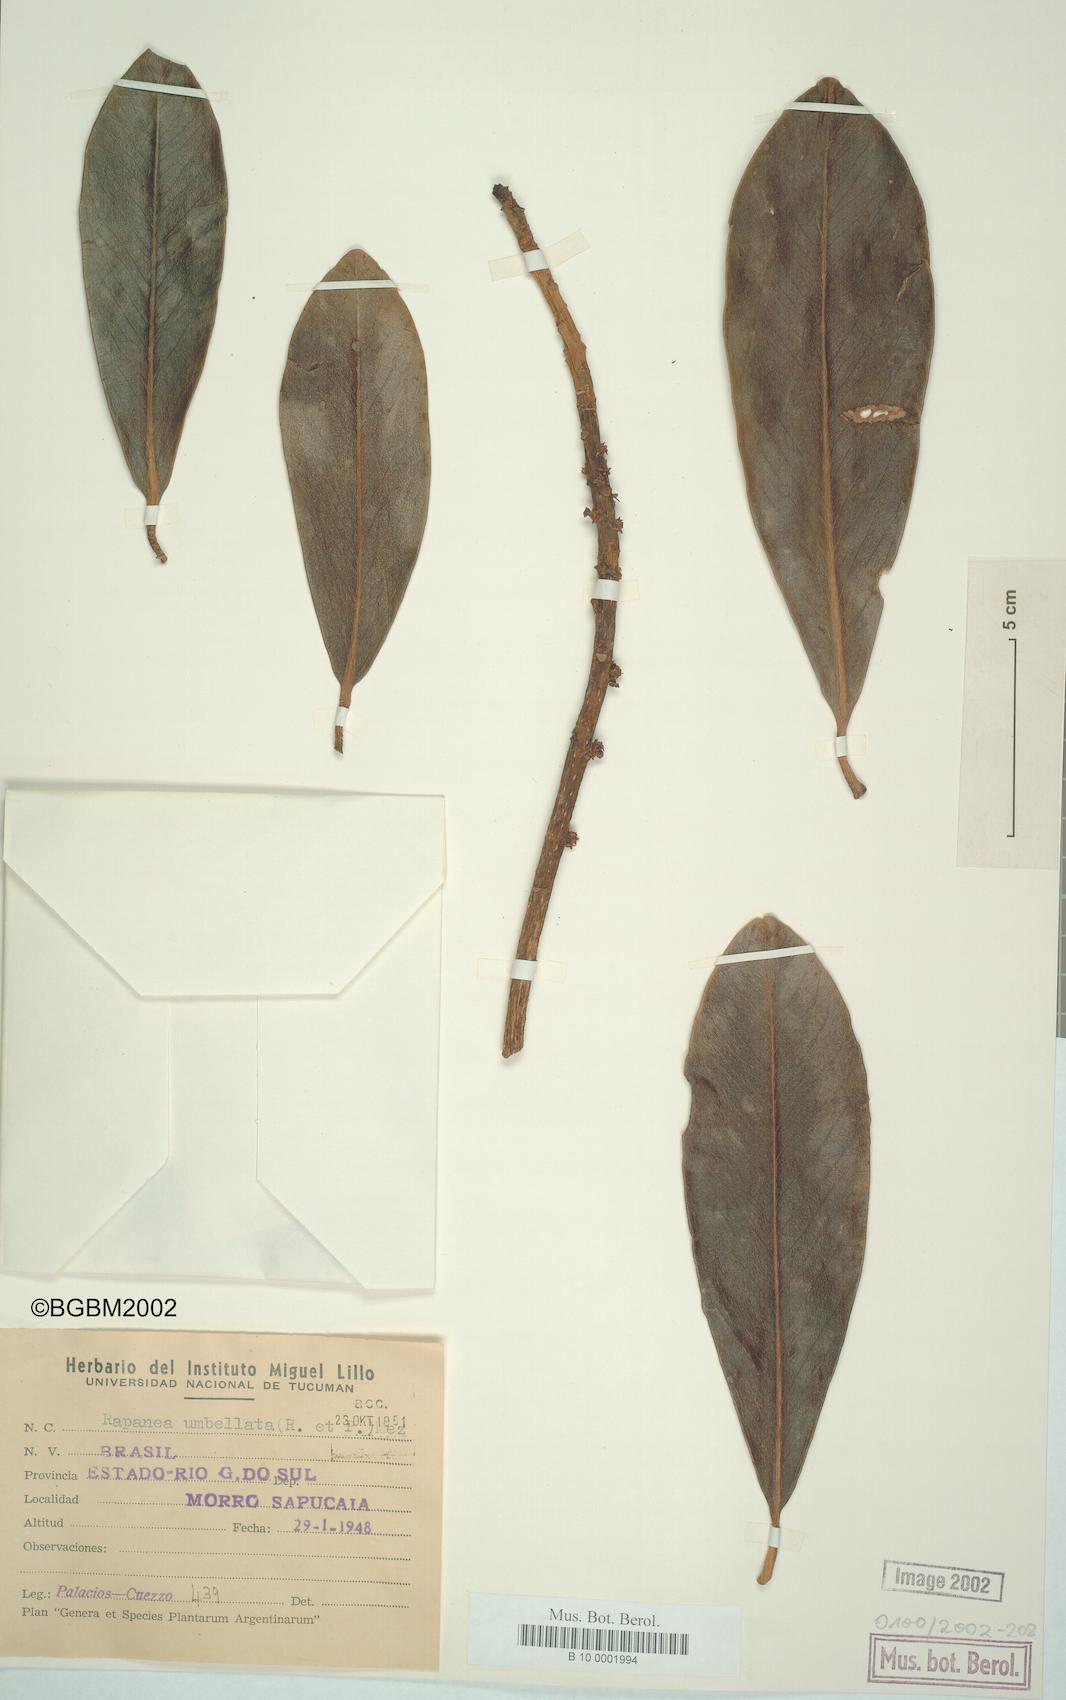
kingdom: Plantae
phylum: Tracheophyta
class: Magnoliopsida
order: Ericales
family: Primulaceae
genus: Myrsine
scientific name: Myrsine umbellata
